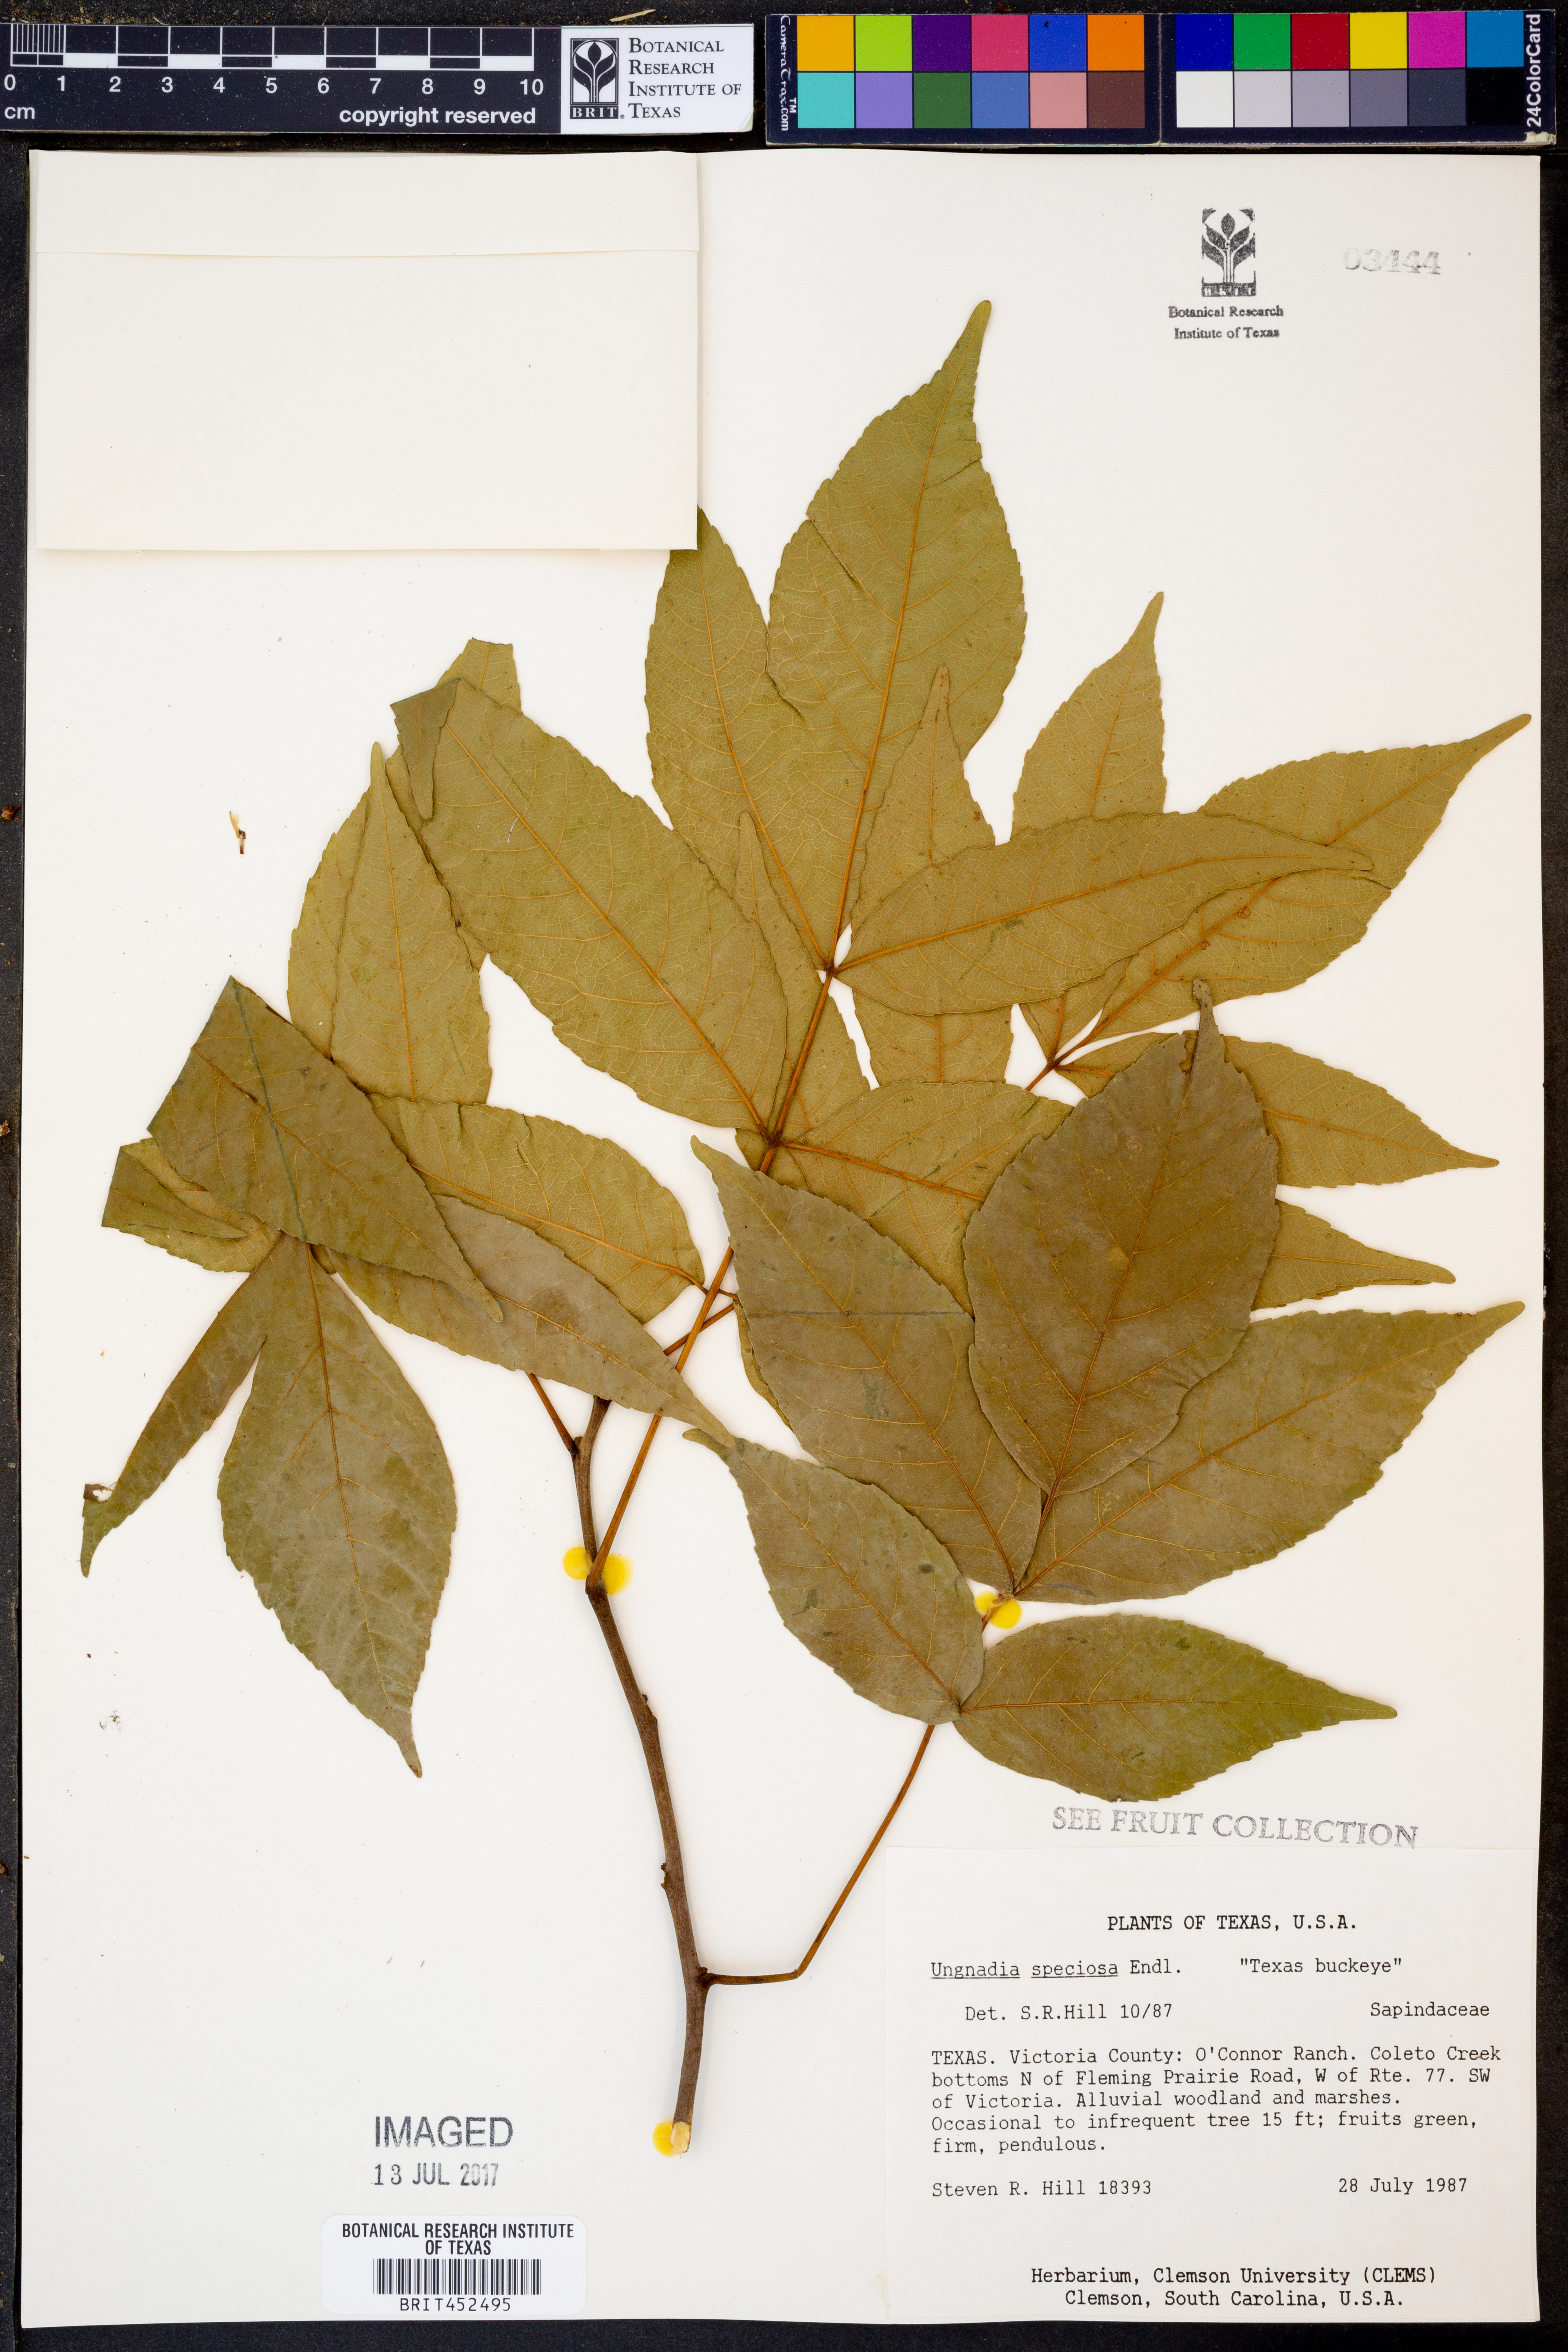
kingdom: Plantae
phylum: Tracheophyta
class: Magnoliopsida
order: Sapindales
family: Sapindaceae
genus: Ungnadia
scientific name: Ungnadia speciosa
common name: Texas-buckeye
